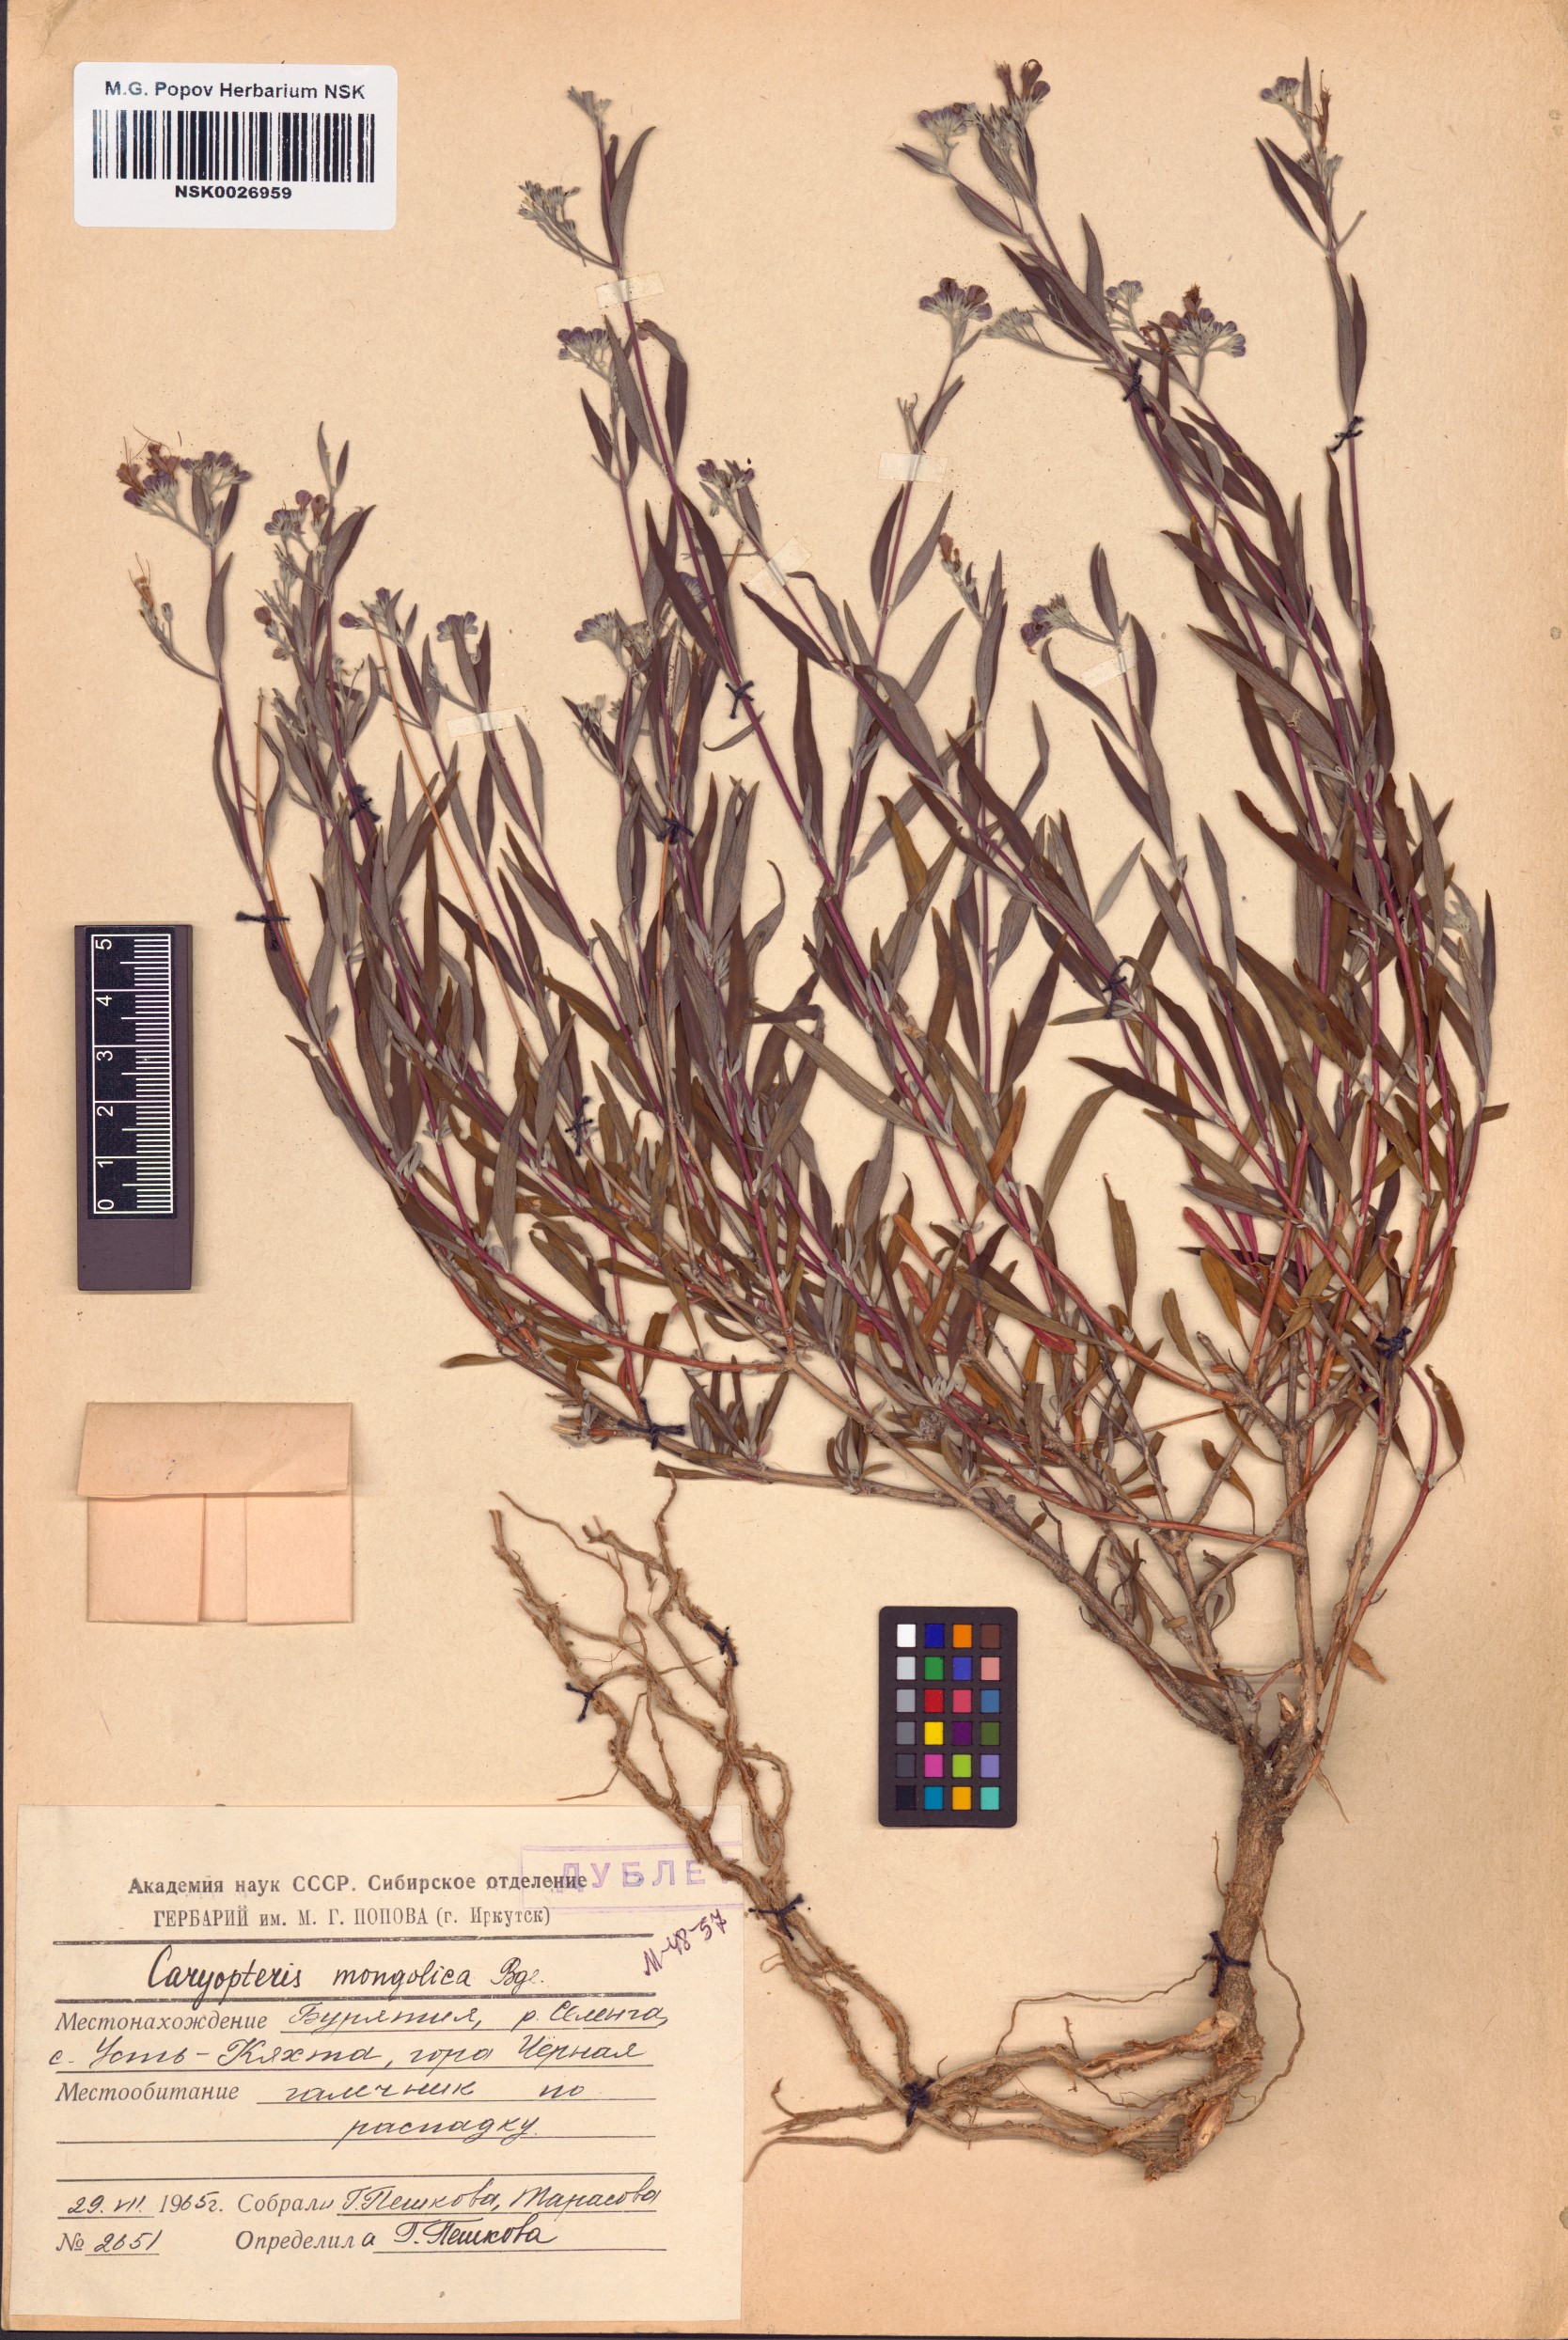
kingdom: Plantae
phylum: Tracheophyta
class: Magnoliopsida
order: Lamiales
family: Lamiaceae
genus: Caryopteris
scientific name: Caryopteris mongholica
